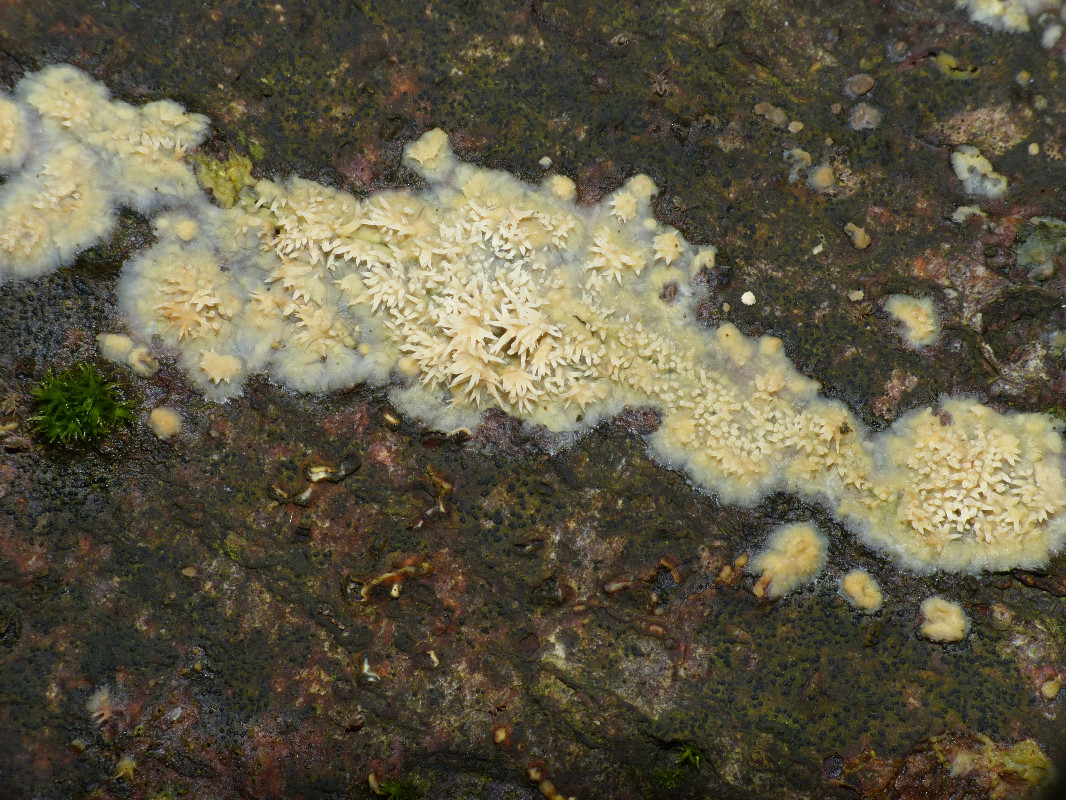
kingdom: Fungi
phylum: Basidiomycota
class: Agaricomycetes
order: Polyporales
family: Meruliaceae
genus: Mycoacia
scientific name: Mycoacia uda
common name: citrongul vokspig
